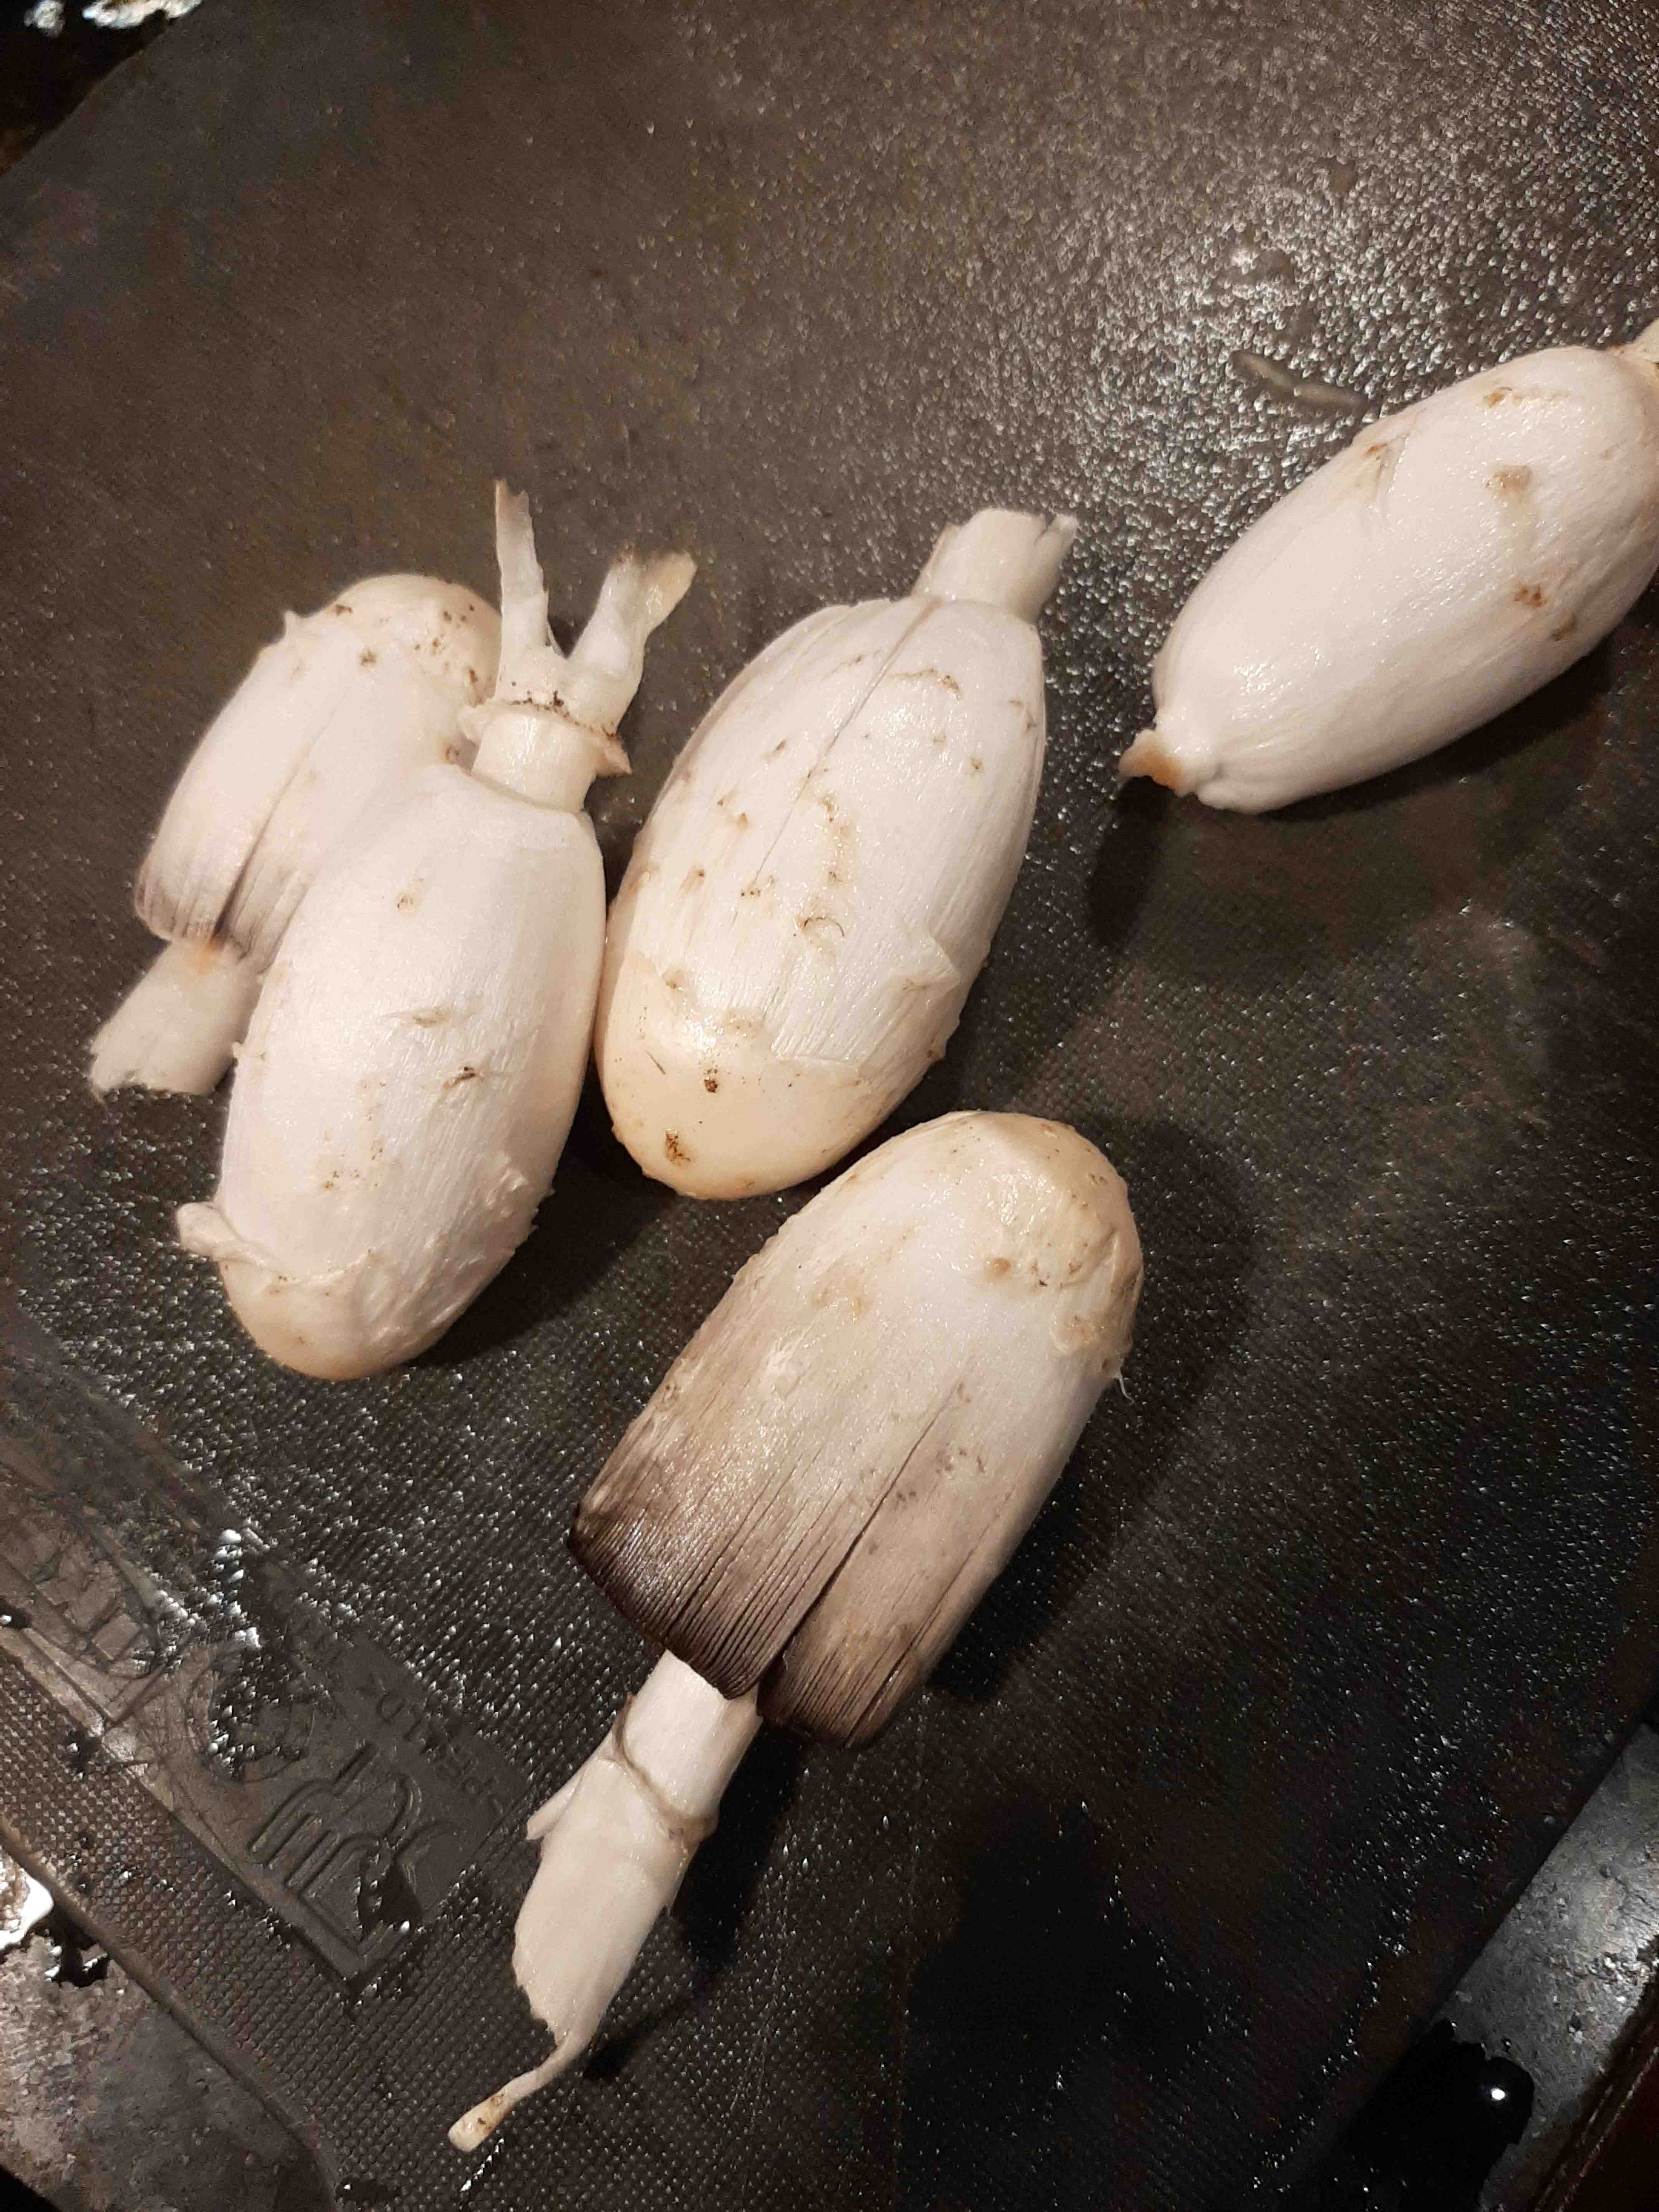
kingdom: Fungi
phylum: Basidiomycota
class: Agaricomycetes
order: Agaricales
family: Agaricaceae
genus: Coprinus
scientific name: Coprinus comatus
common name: stor parykhat
